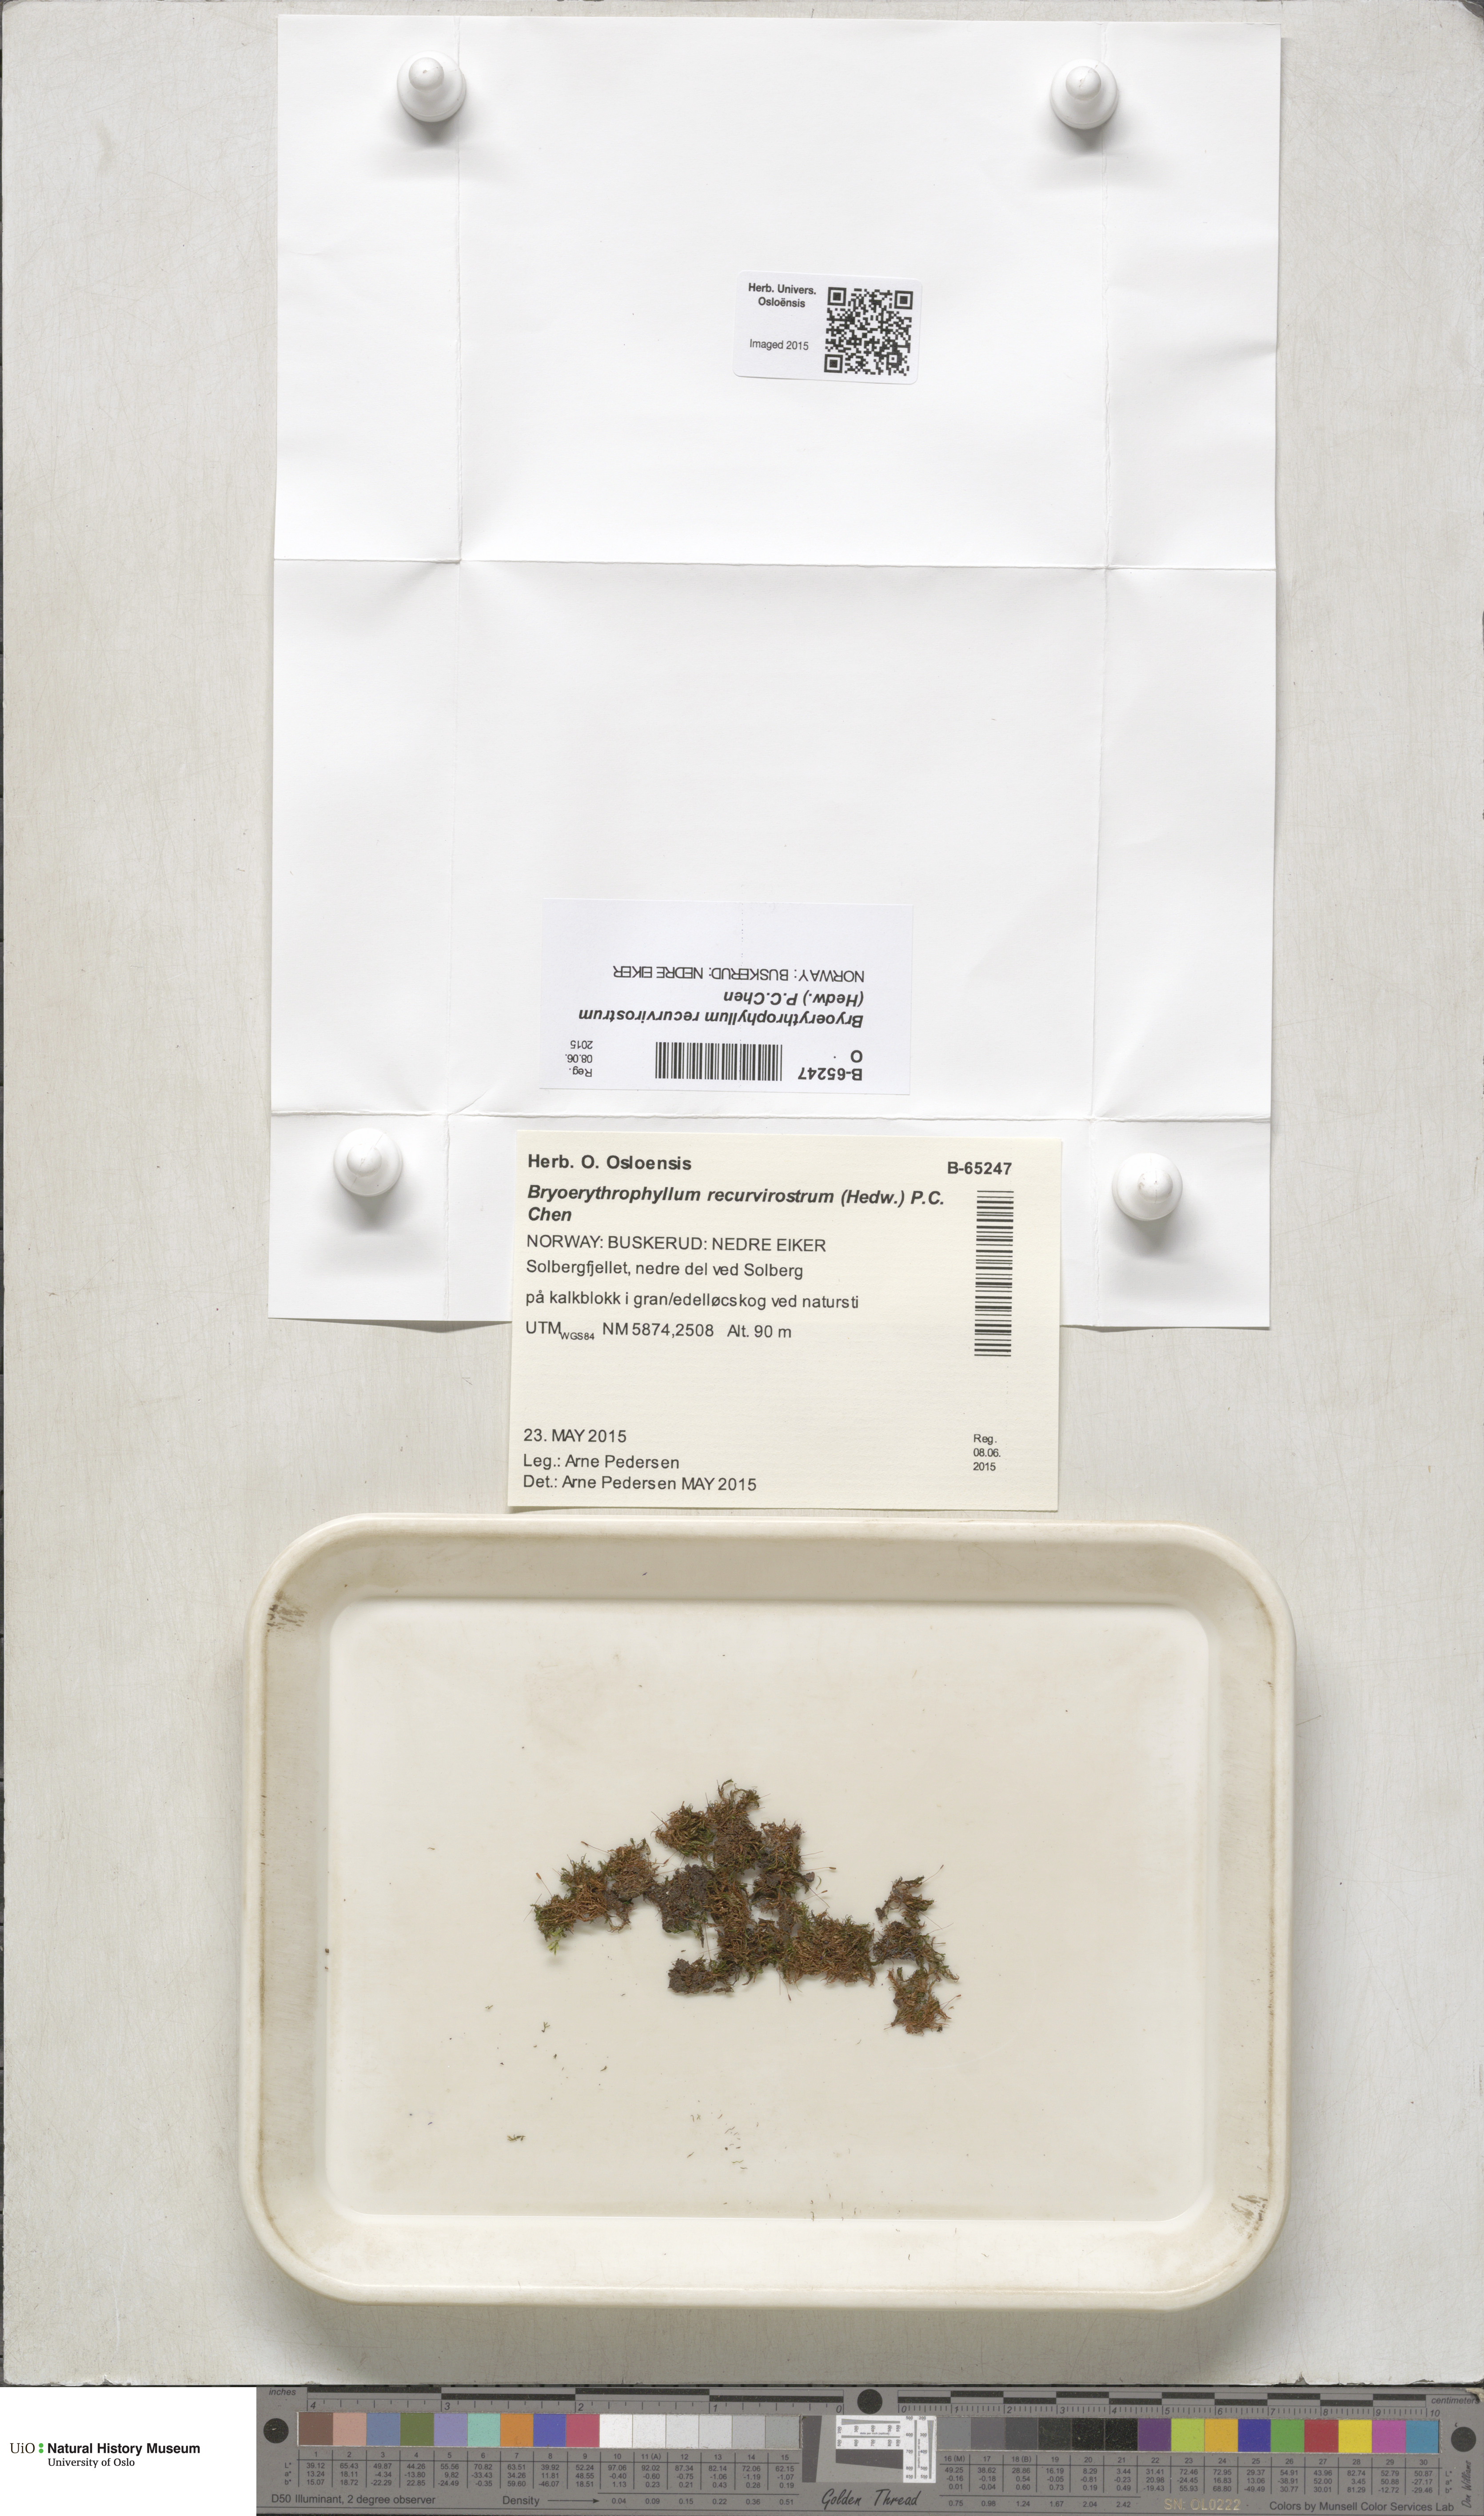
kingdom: Plantae
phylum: Bryophyta
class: Bryopsida
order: Pottiales
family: Pottiaceae
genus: Bryoerythrophyllum
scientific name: Bryoerythrophyllum recurvirostrum
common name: Red beard moss
